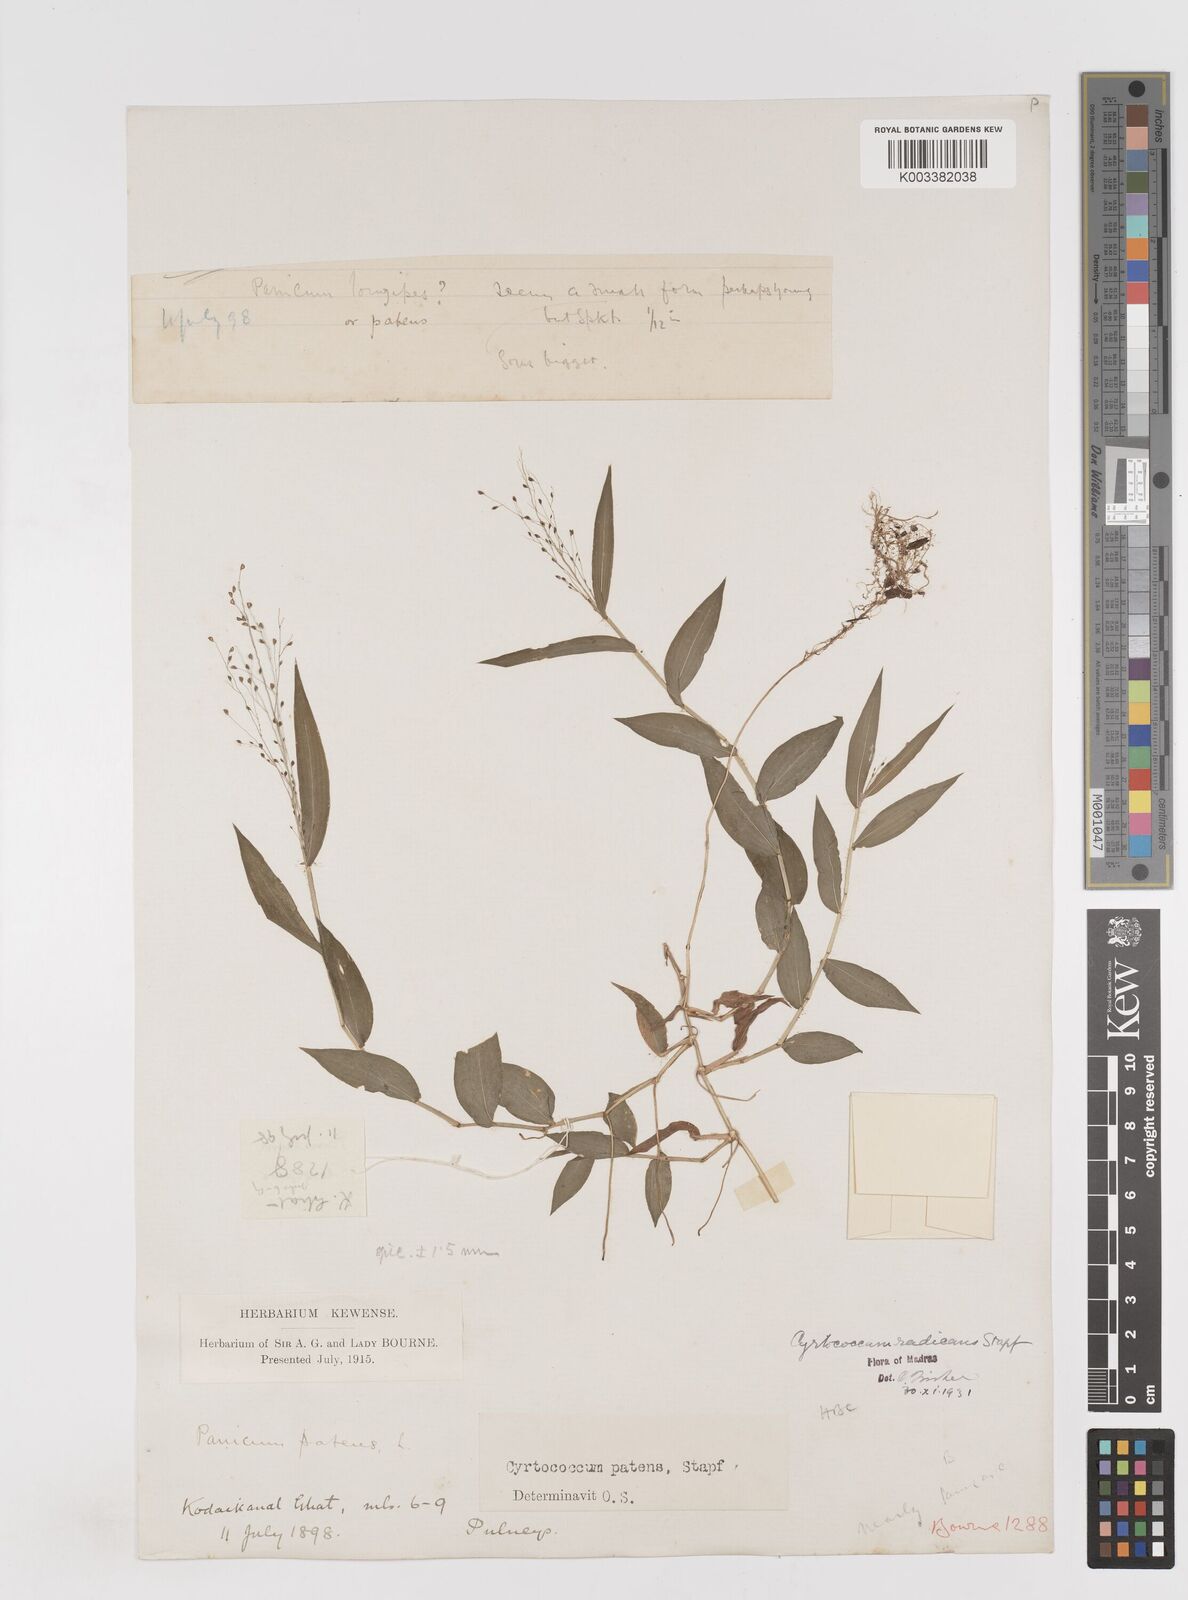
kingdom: Plantae
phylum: Tracheophyta
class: Liliopsida
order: Poales
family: Poaceae
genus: Cyrtococcum
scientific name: Cyrtococcum deccanense
